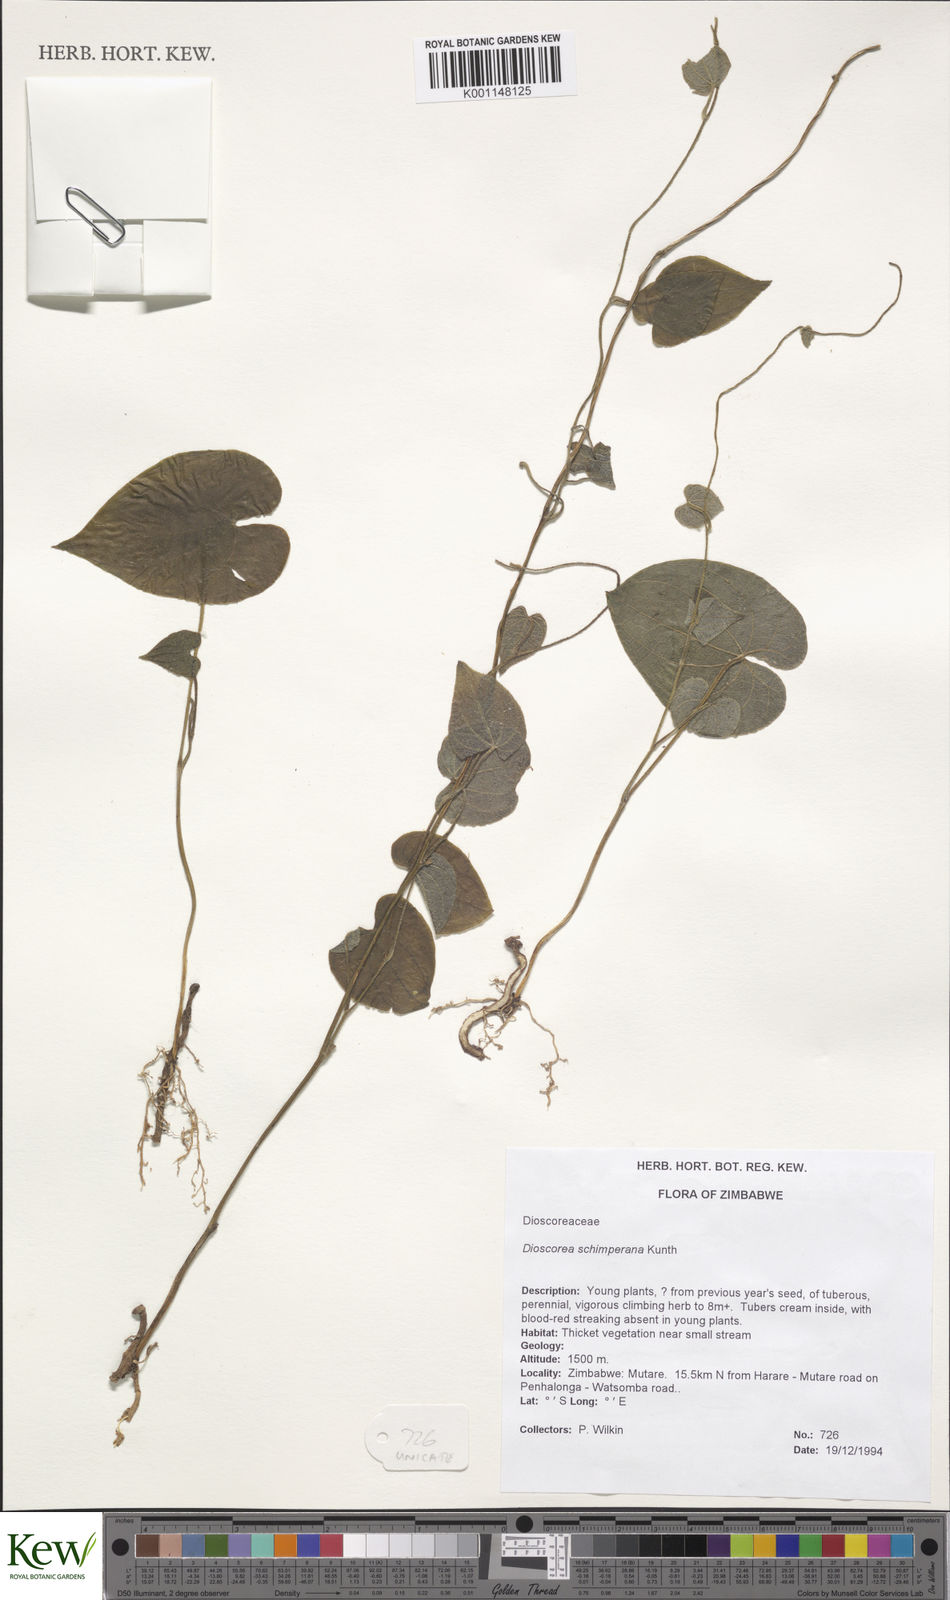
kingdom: Plantae
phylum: Tracheophyta
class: Liliopsida
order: Dioscoreales
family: Dioscoreaceae
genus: Dioscorea
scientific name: Dioscorea schimperiana
